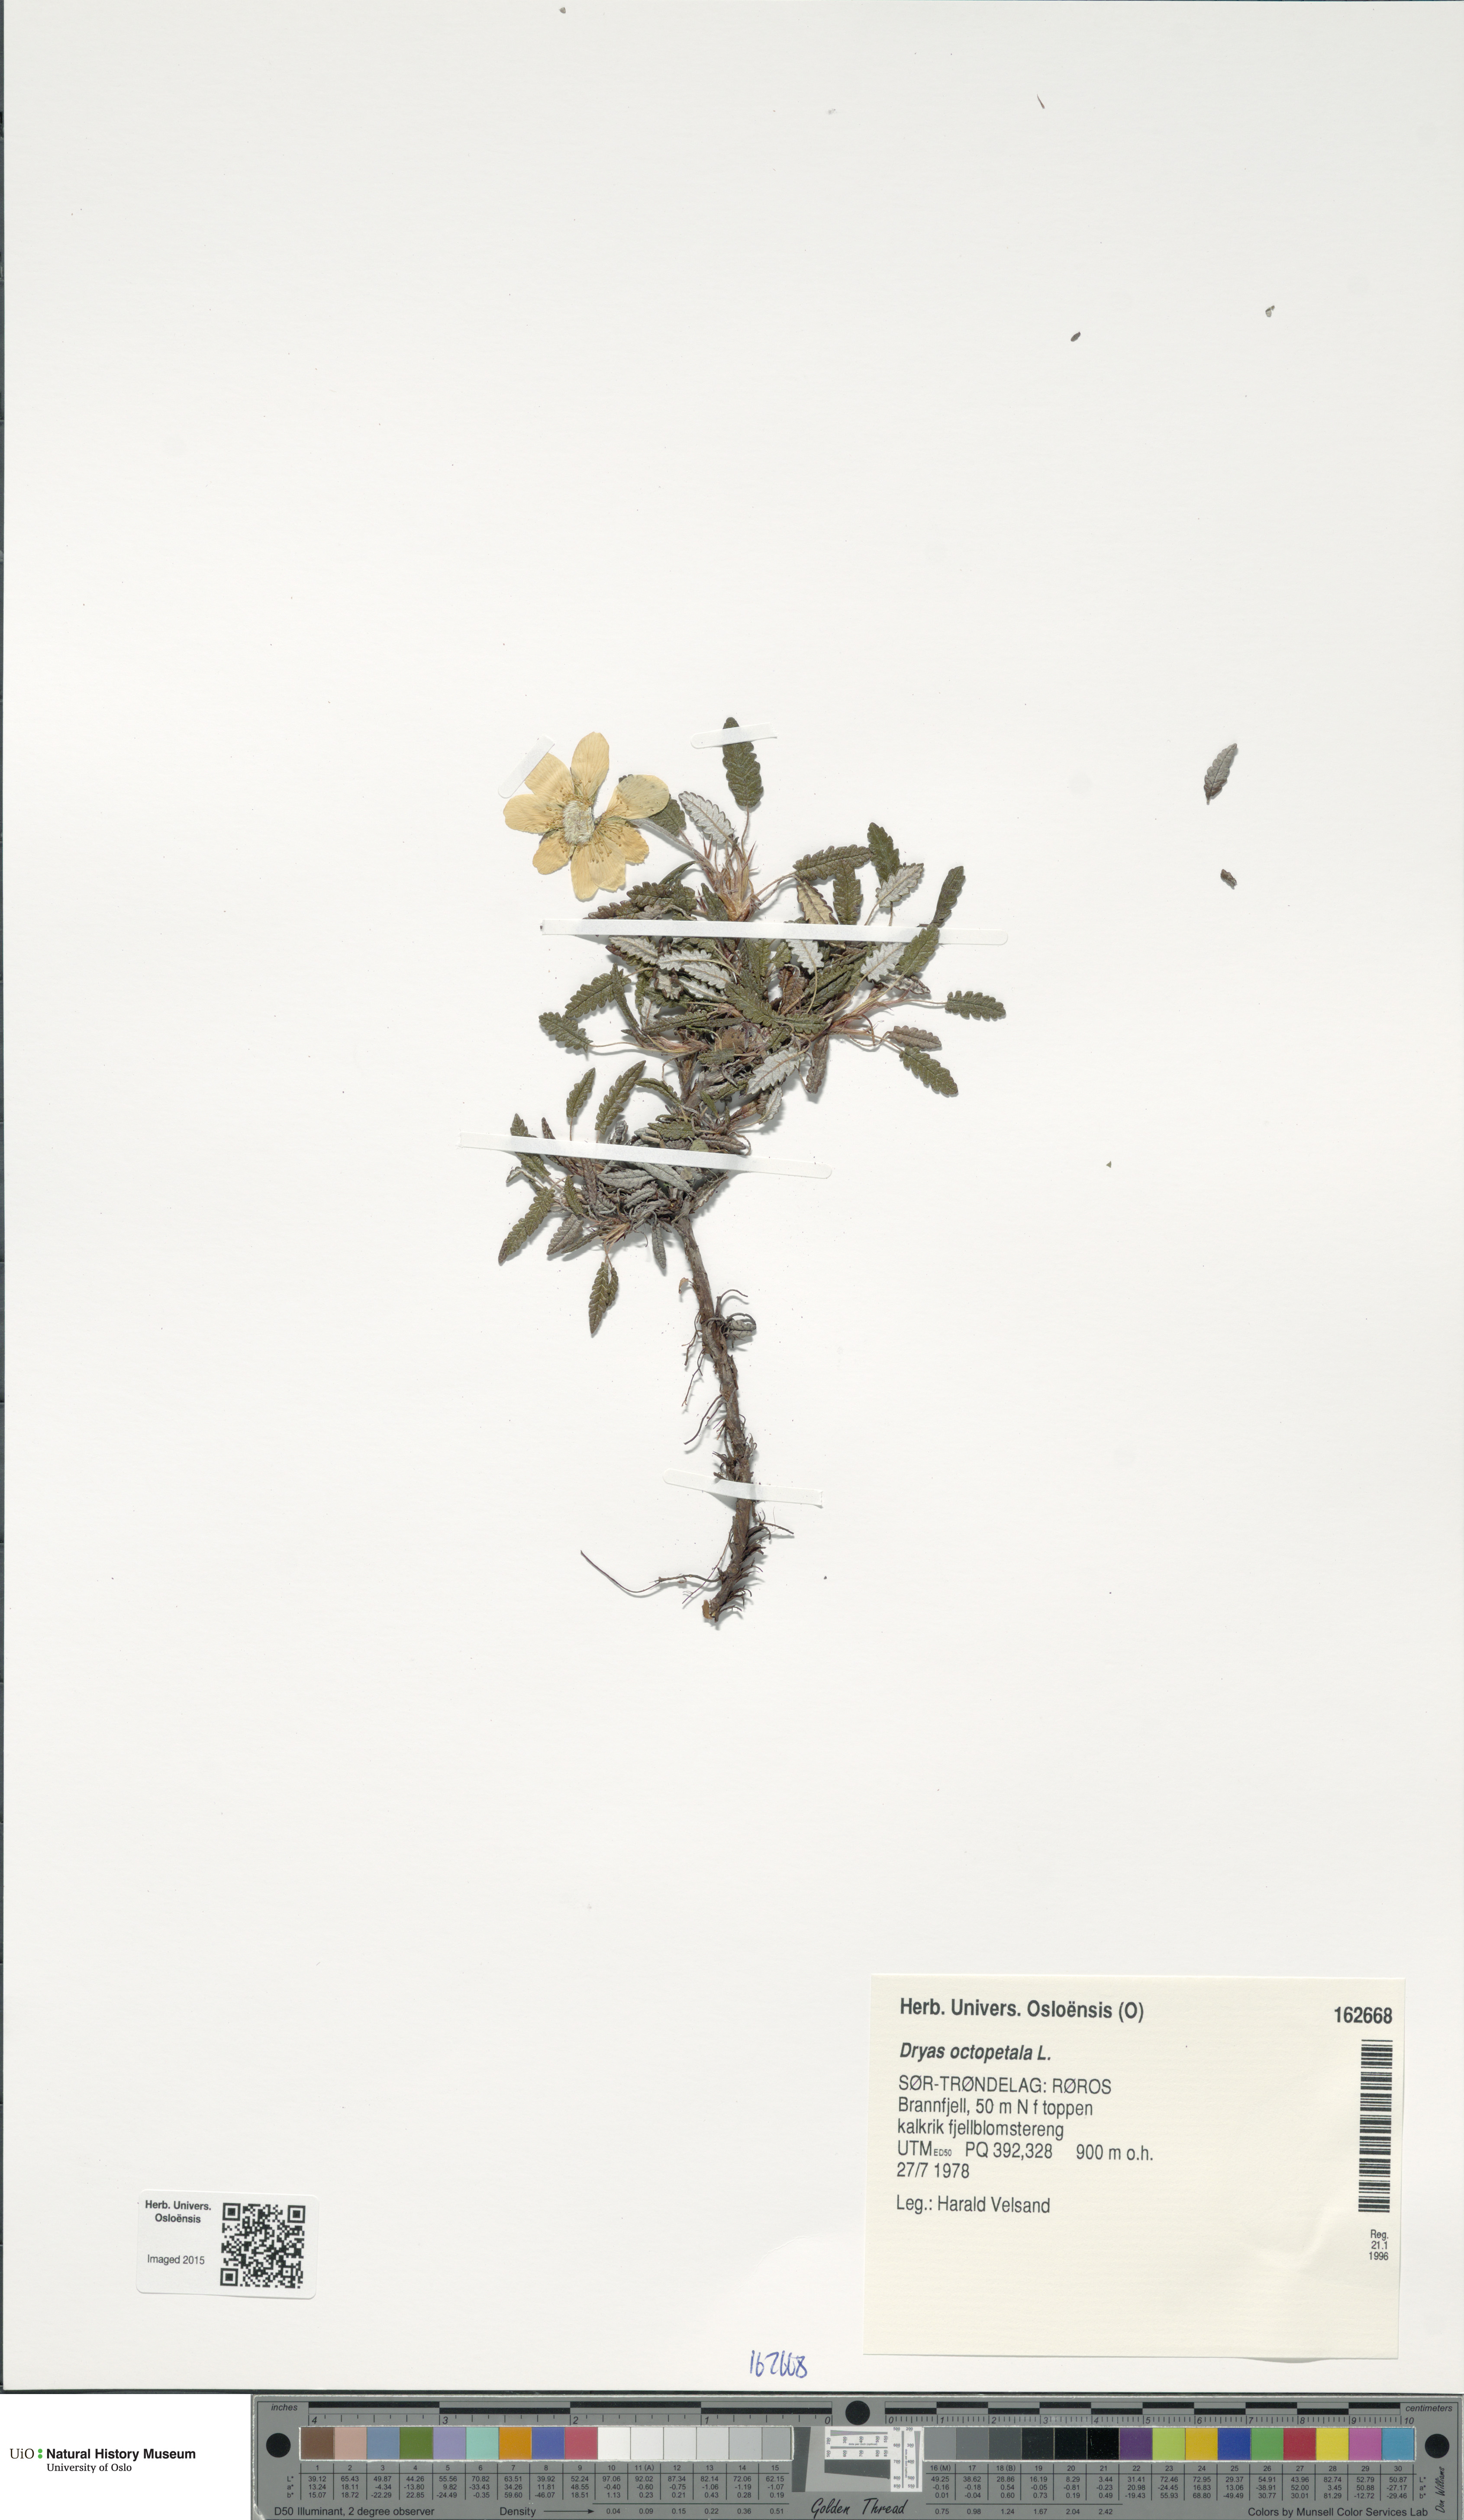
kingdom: Plantae
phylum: Tracheophyta
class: Magnoliopsida
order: Rosales
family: Rosaceae
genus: Dryas
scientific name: Dryas octopetala
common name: Eight-petal mountain-avens
